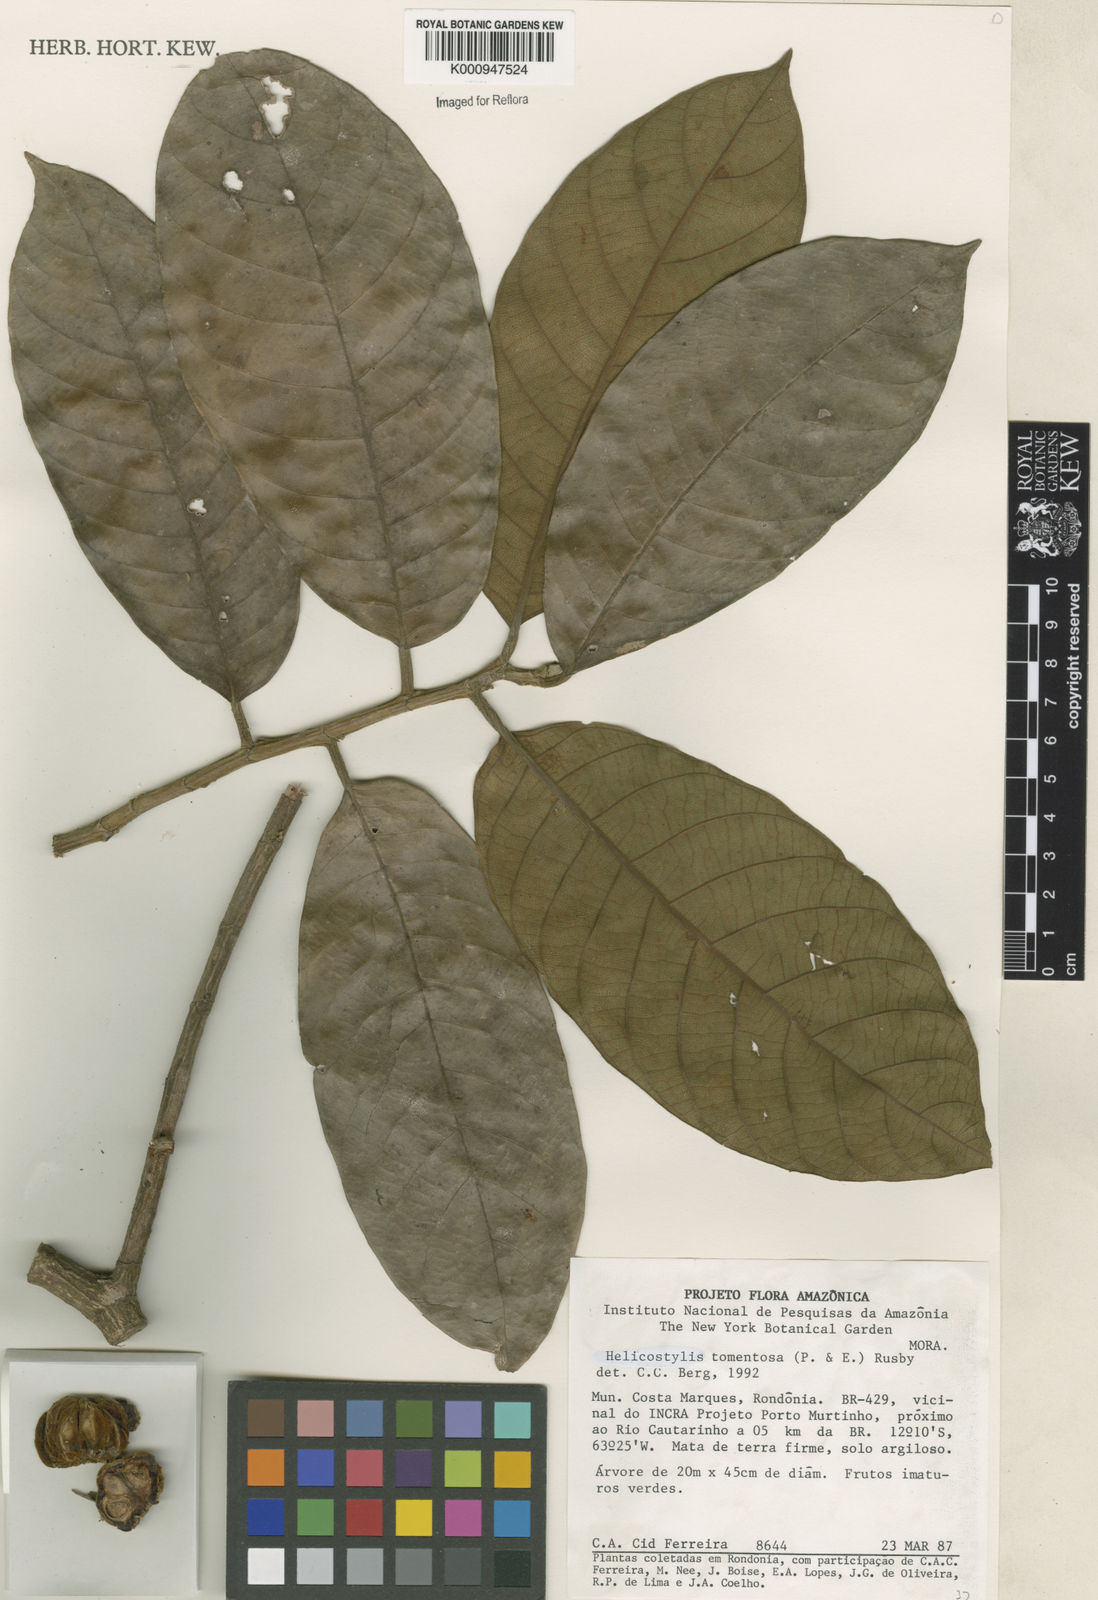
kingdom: Plantae
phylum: Tracheophyta
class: Magnoliopsida
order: Rosales
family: Moraceae
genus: Helicostylis
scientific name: Helicostylis
